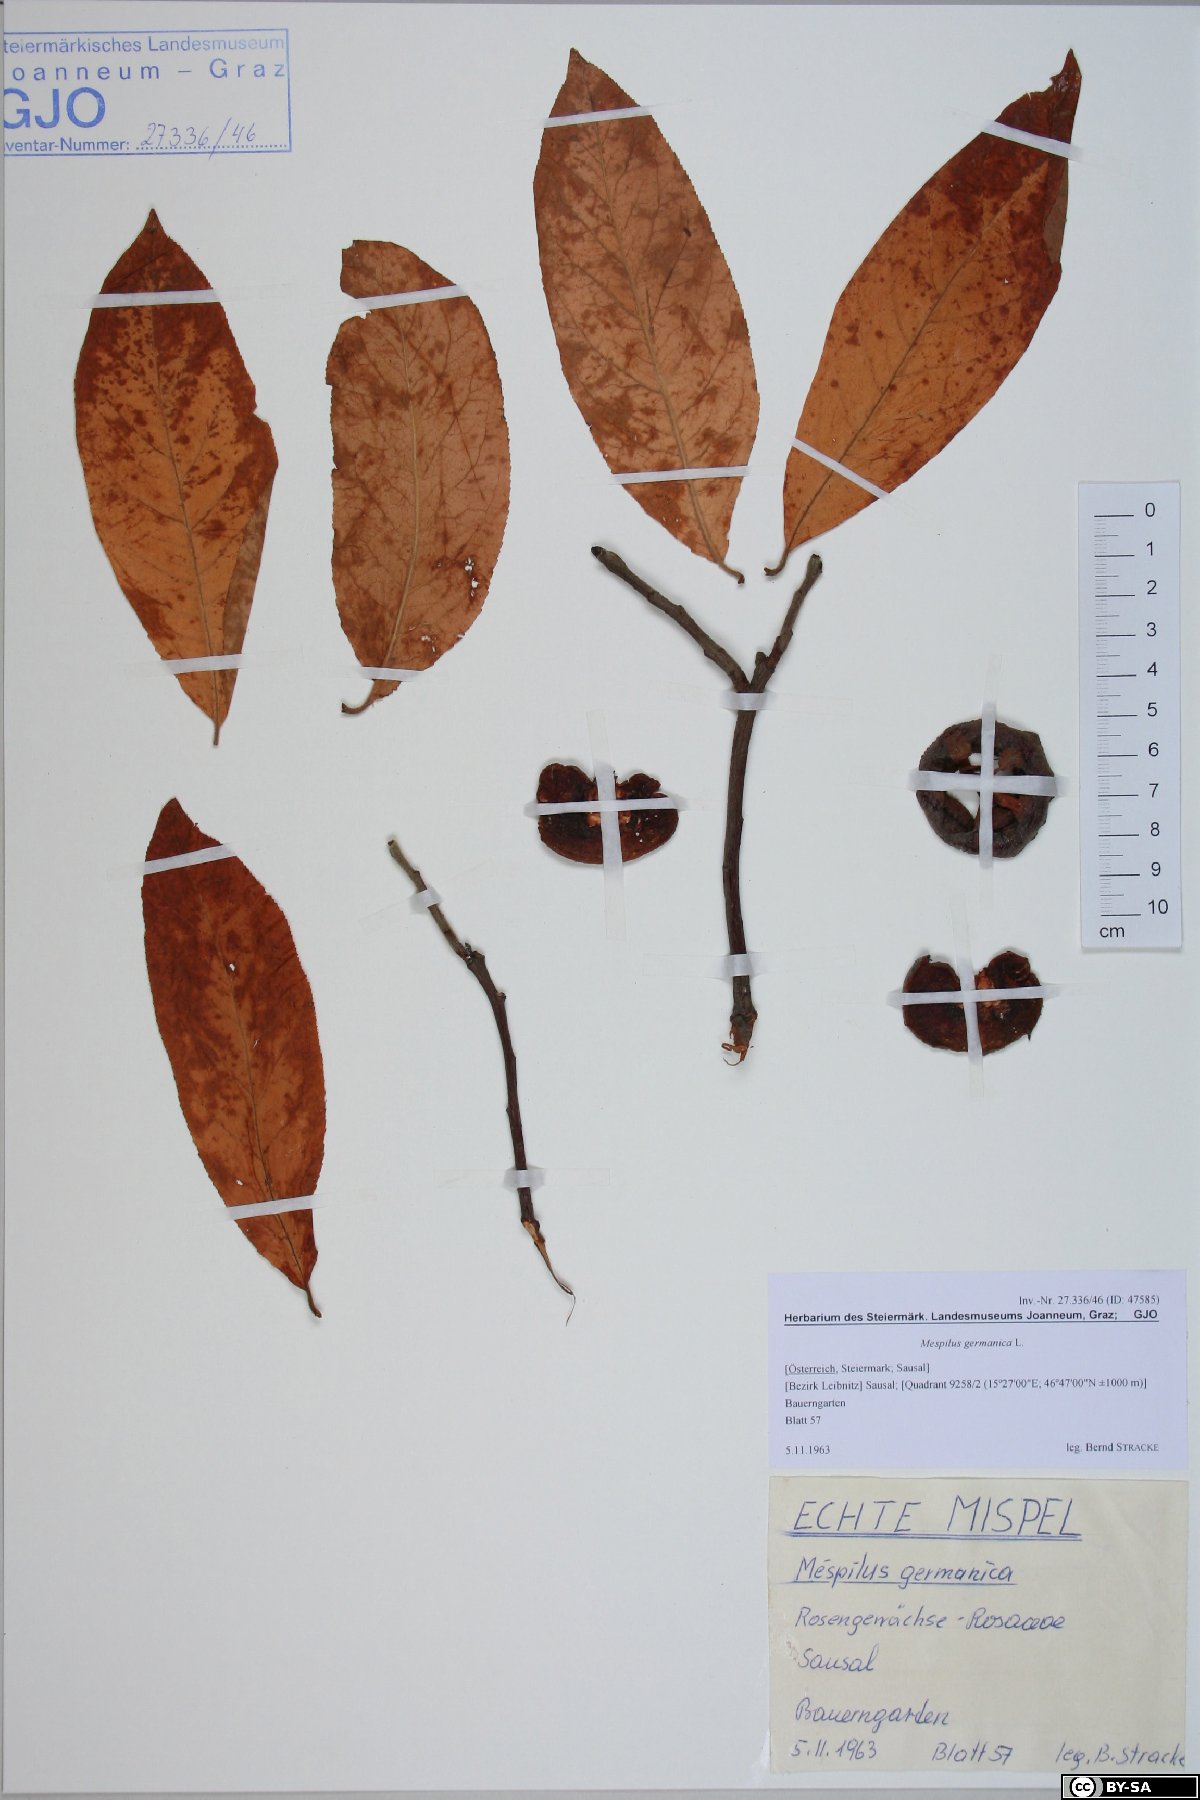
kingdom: Plantae
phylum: Tracheophyta
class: Magnoliopsida
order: Rosales
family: Rosaceae
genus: Mespilus
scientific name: Mespilus germanica
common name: Medlar
